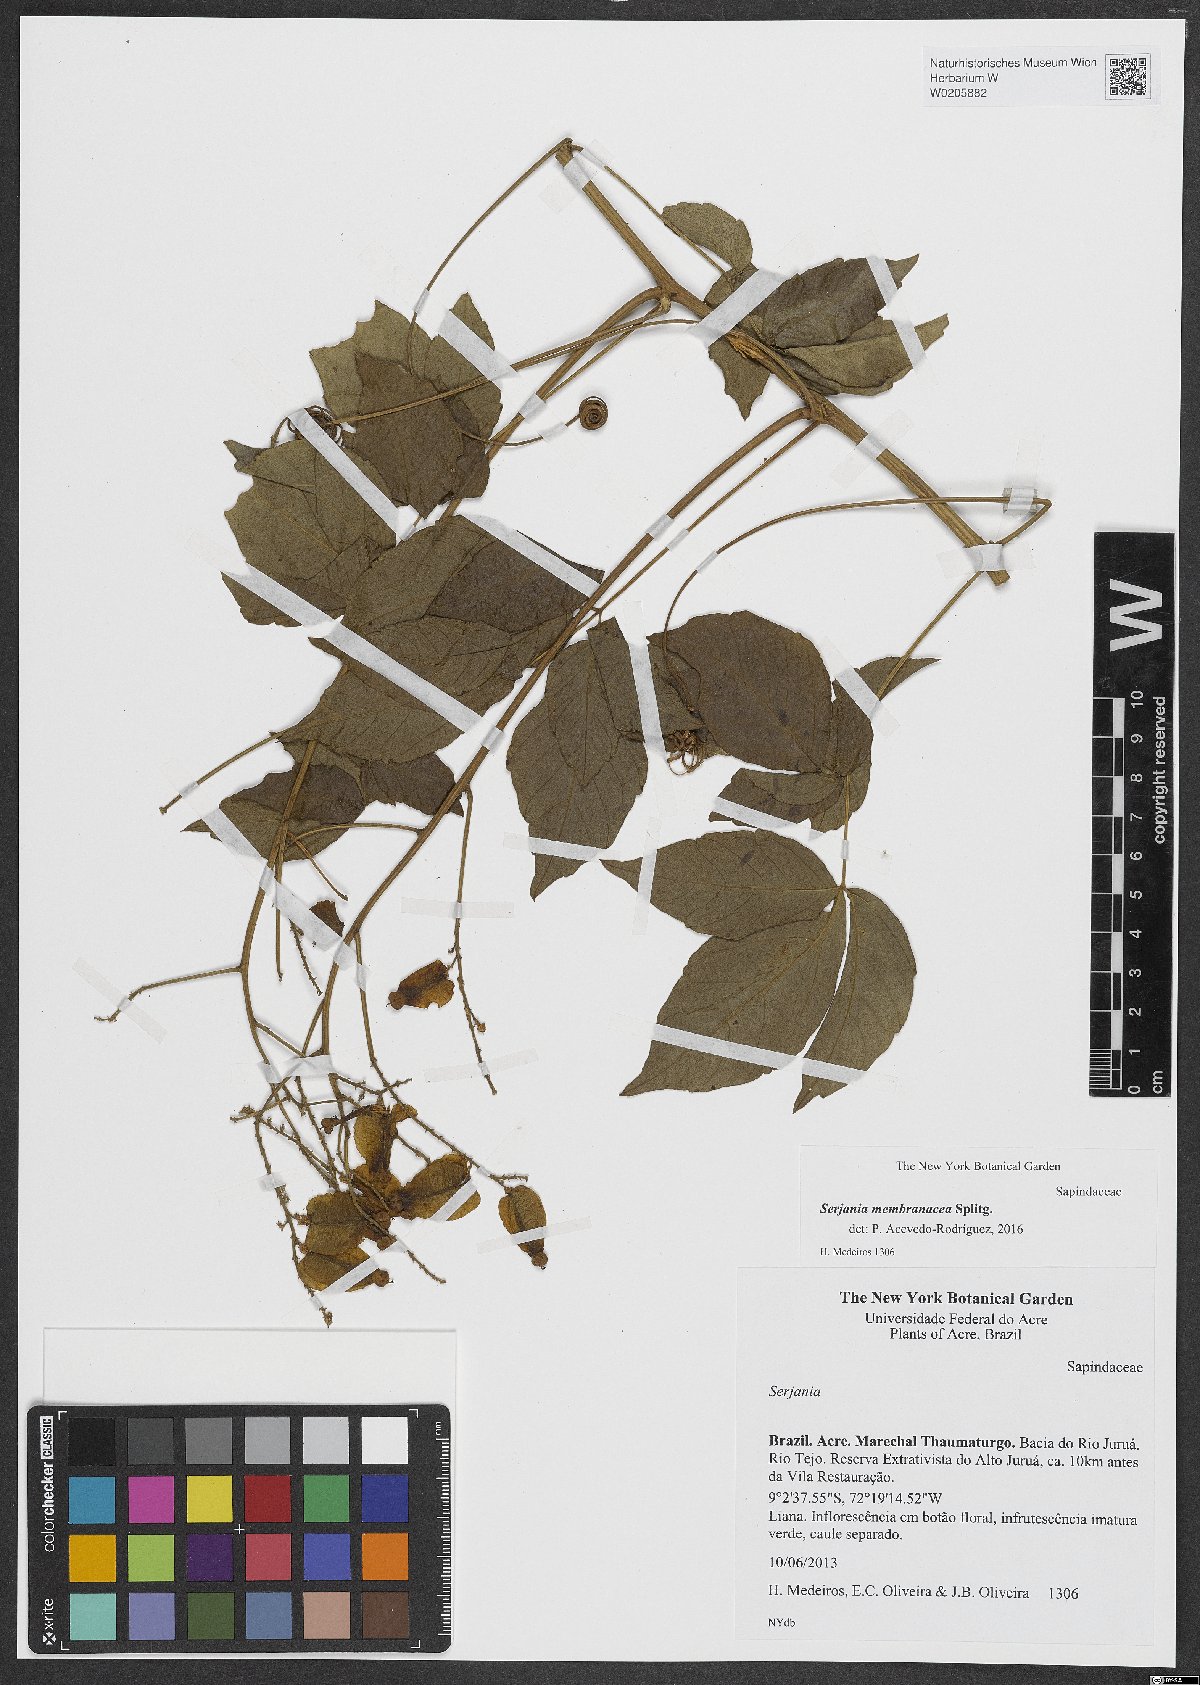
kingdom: Plantae
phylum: Tracheophyta
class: Magnoliopsida
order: Sapindales
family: Sapindaceae
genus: Serjania
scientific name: Serjania membranacea
